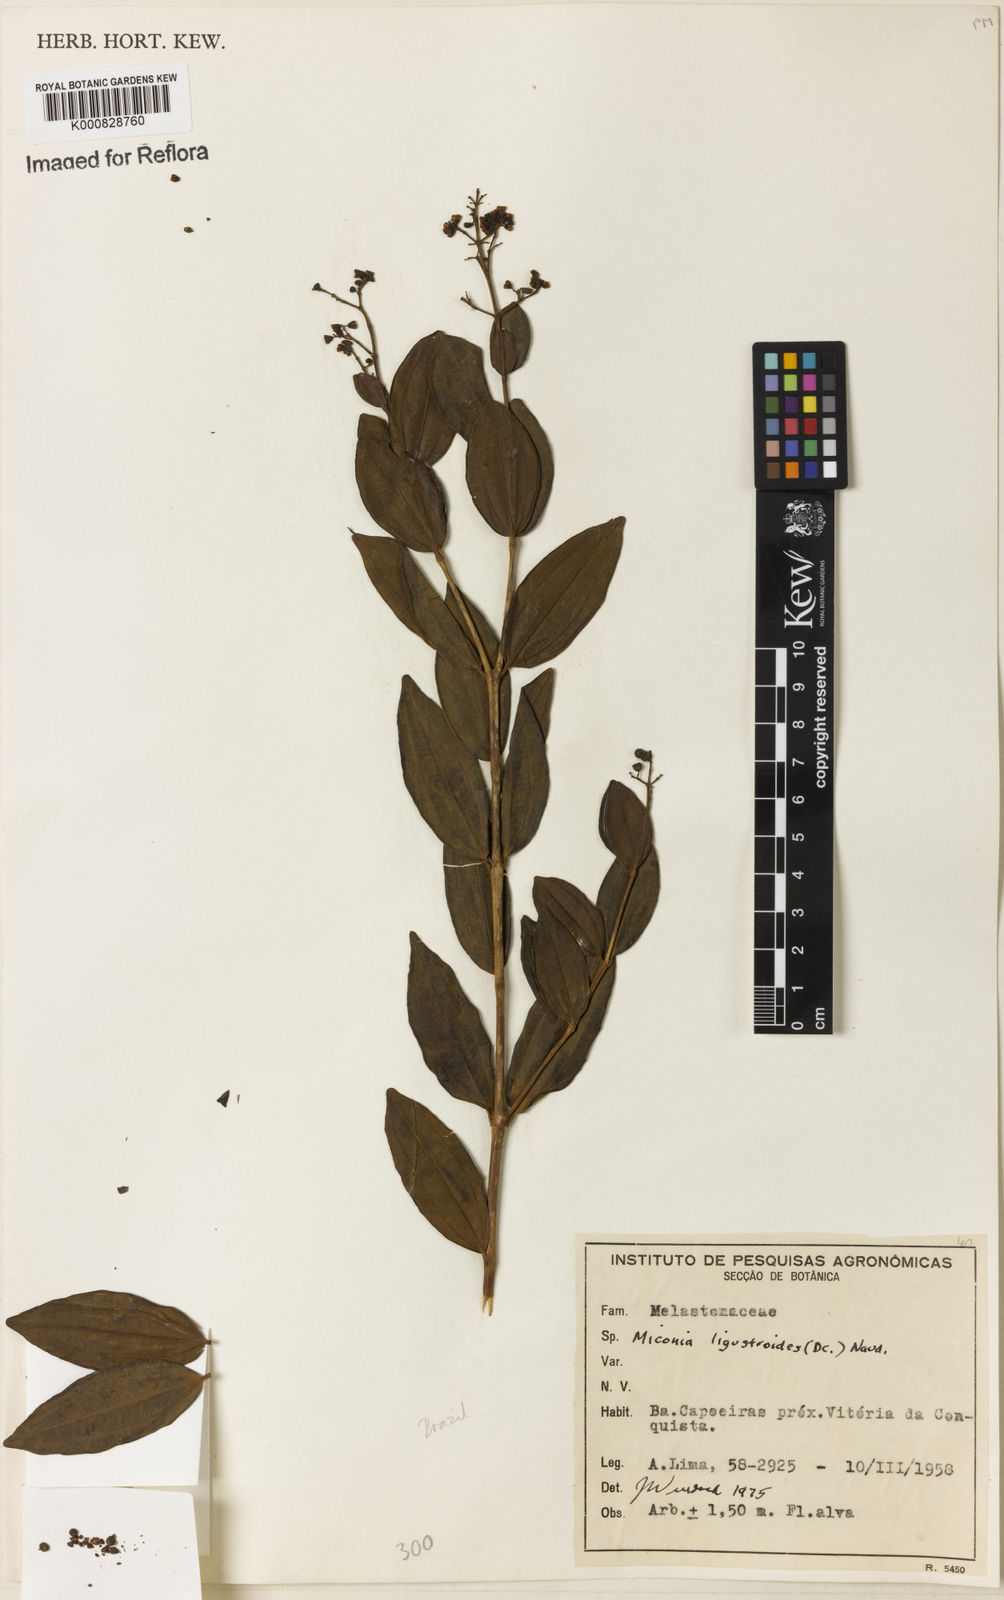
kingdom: Plantae
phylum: Tracheophyta
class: Magnoliopsida
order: Myrtales
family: Melastomataceae
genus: Miconia
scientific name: Miconia ligustroides
